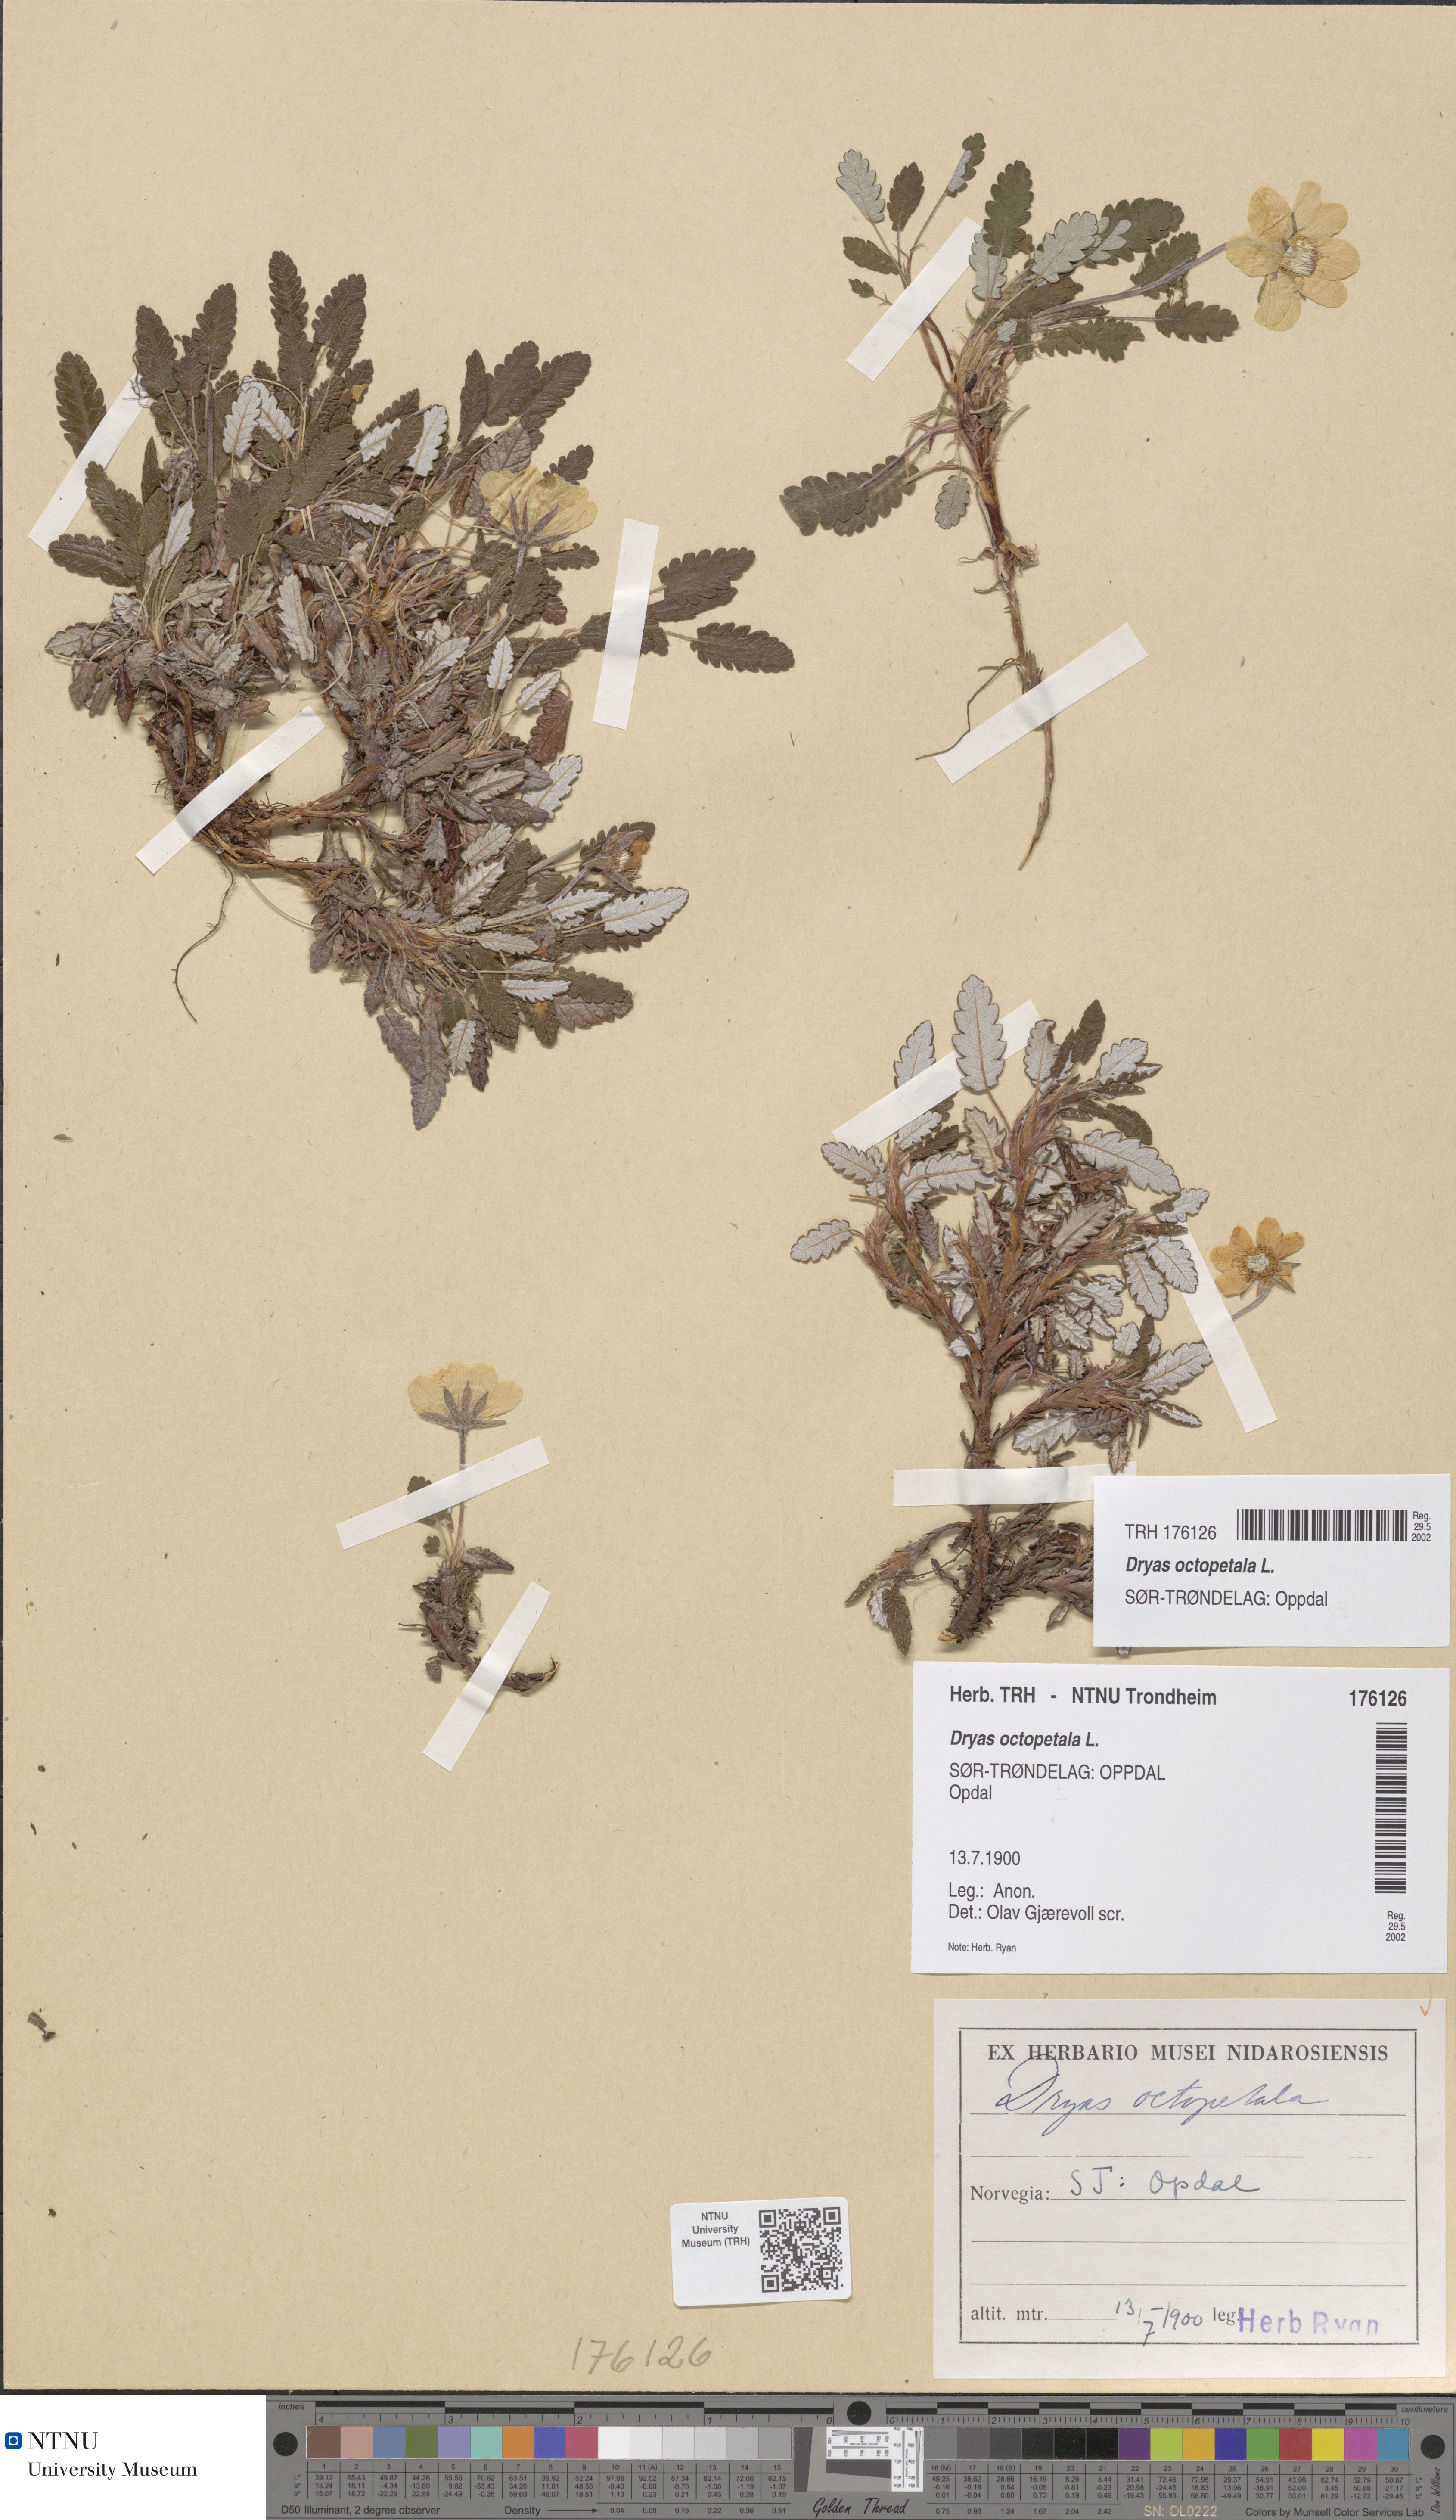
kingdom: Plantae
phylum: Tracheophyta
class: Magnoliopsida
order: Rosales
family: Rosaceae
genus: Dryas
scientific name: Dryas octopetala
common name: Eight-petal mountain-avens
